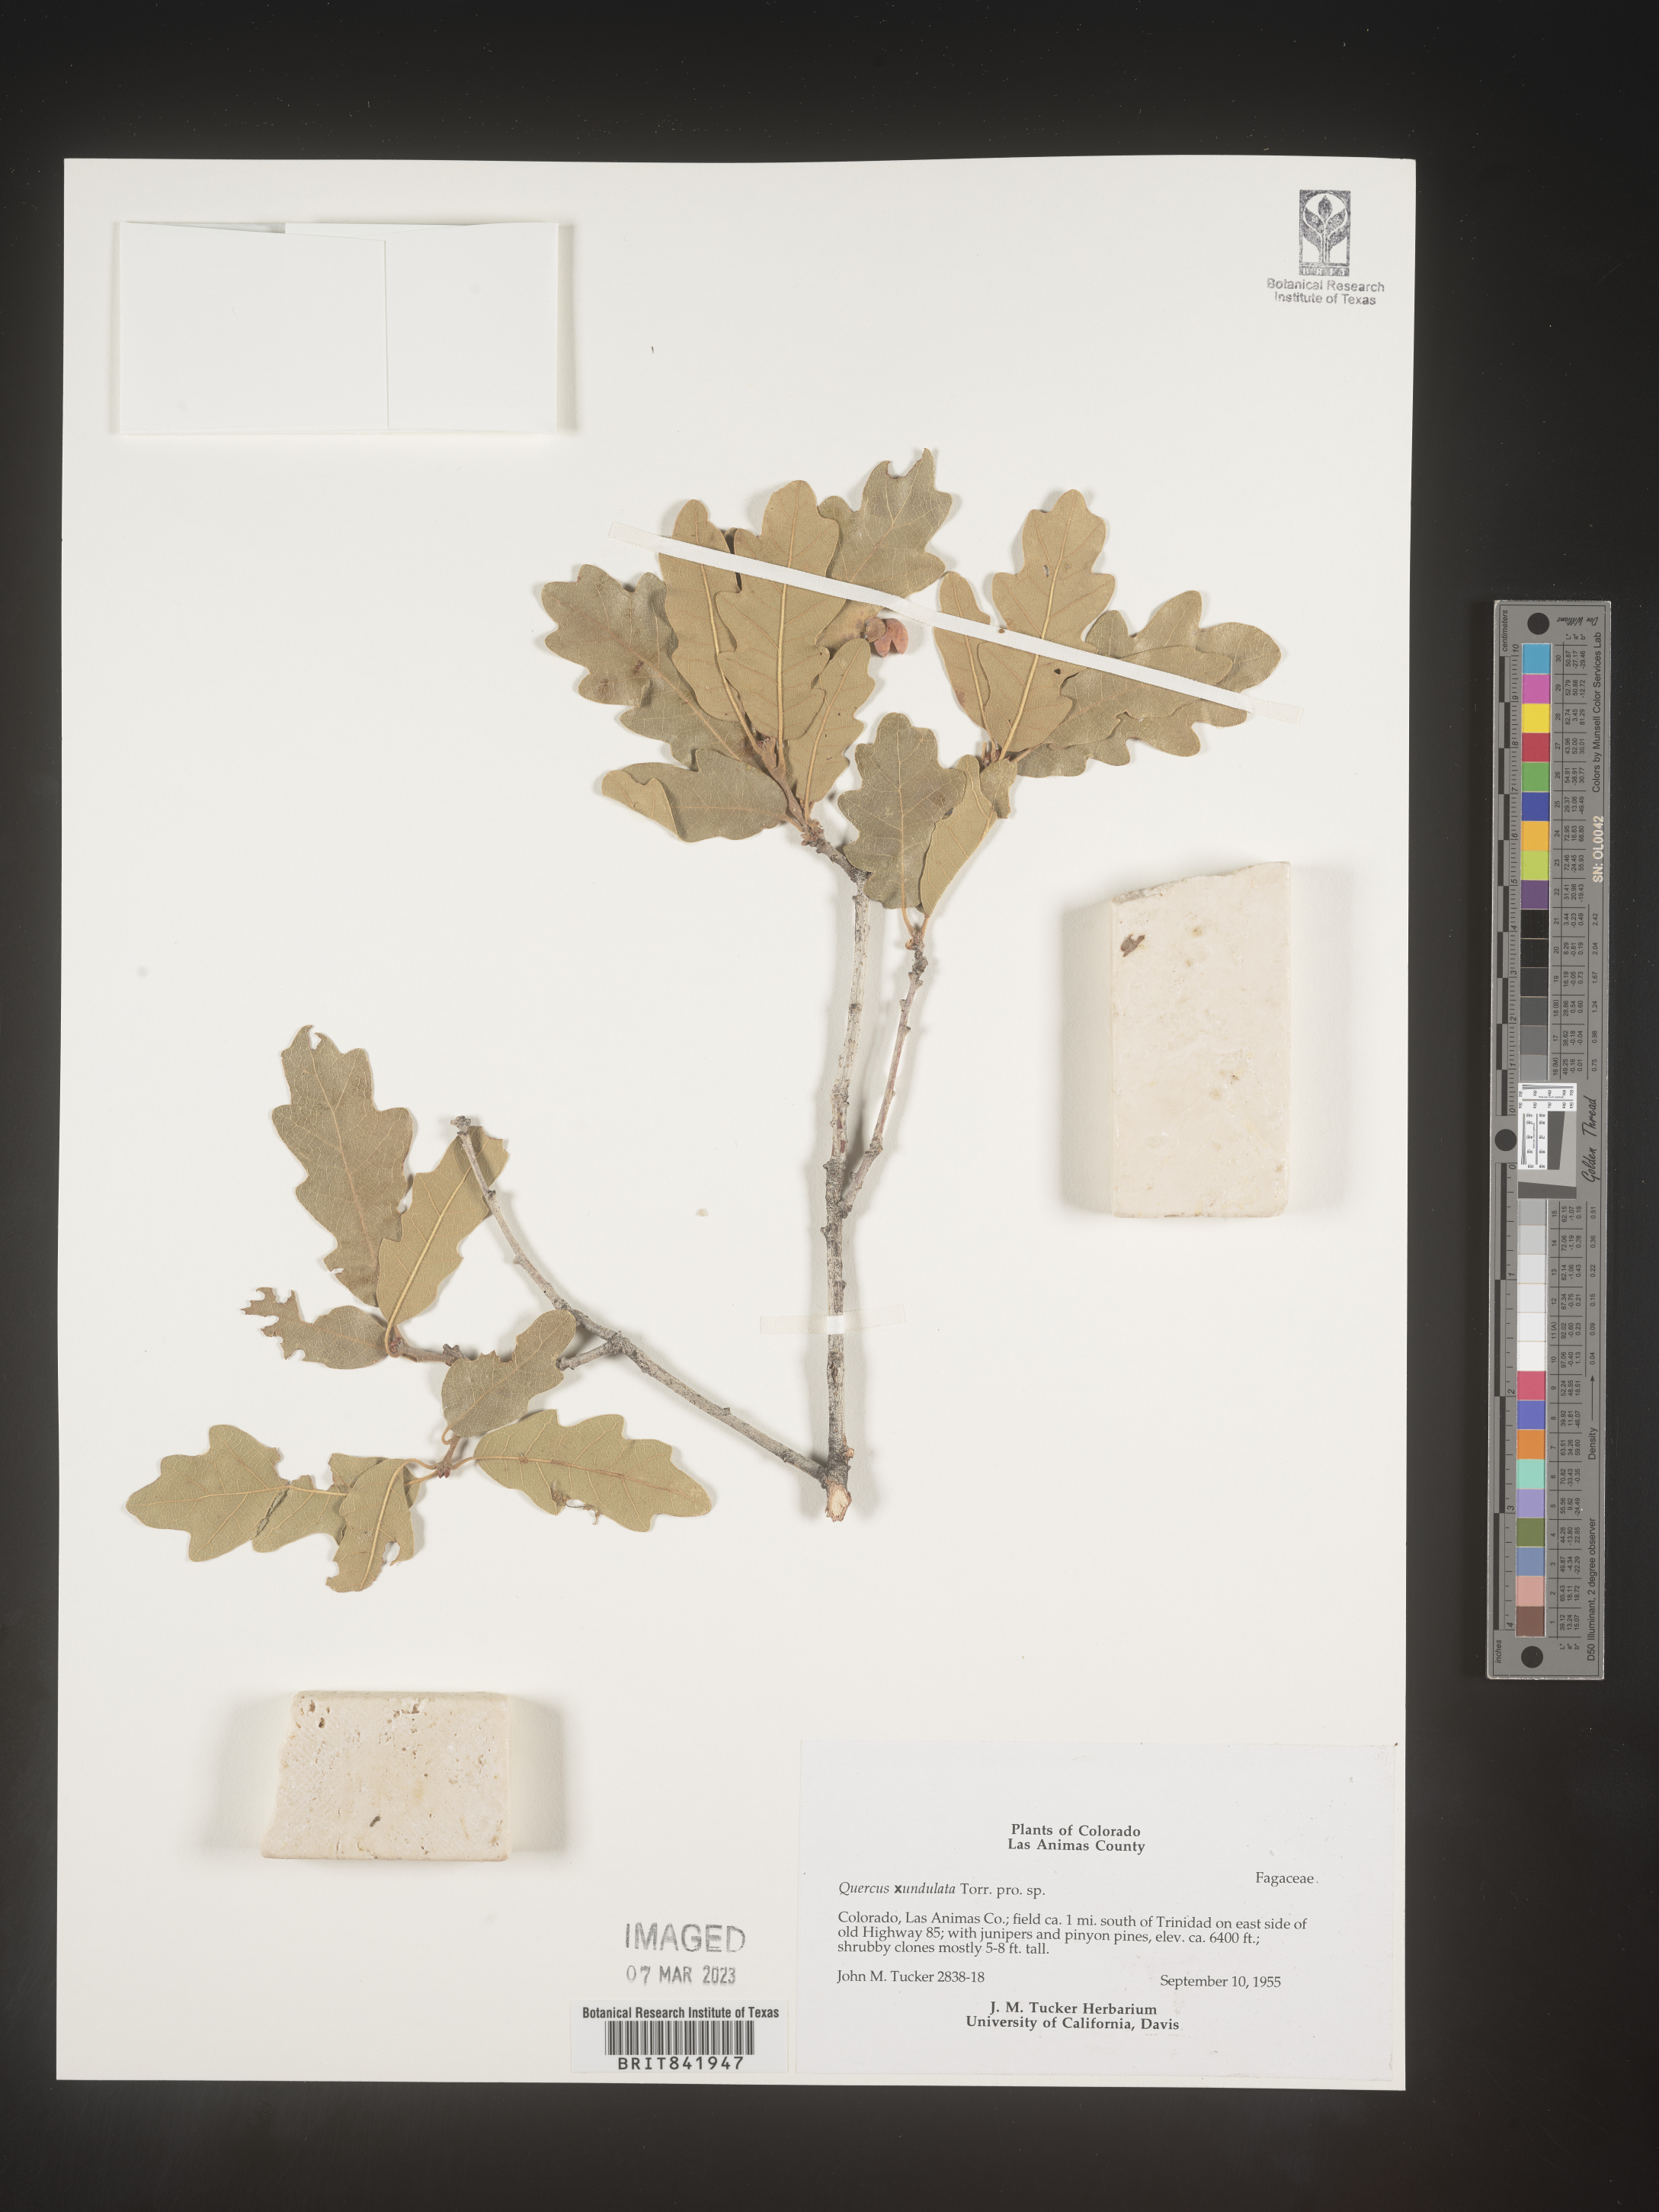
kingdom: Plantae
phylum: Tracheophyta
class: Magnoliopsida
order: Fagales
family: Fagaceae
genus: Quercus
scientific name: Quercus undulata
